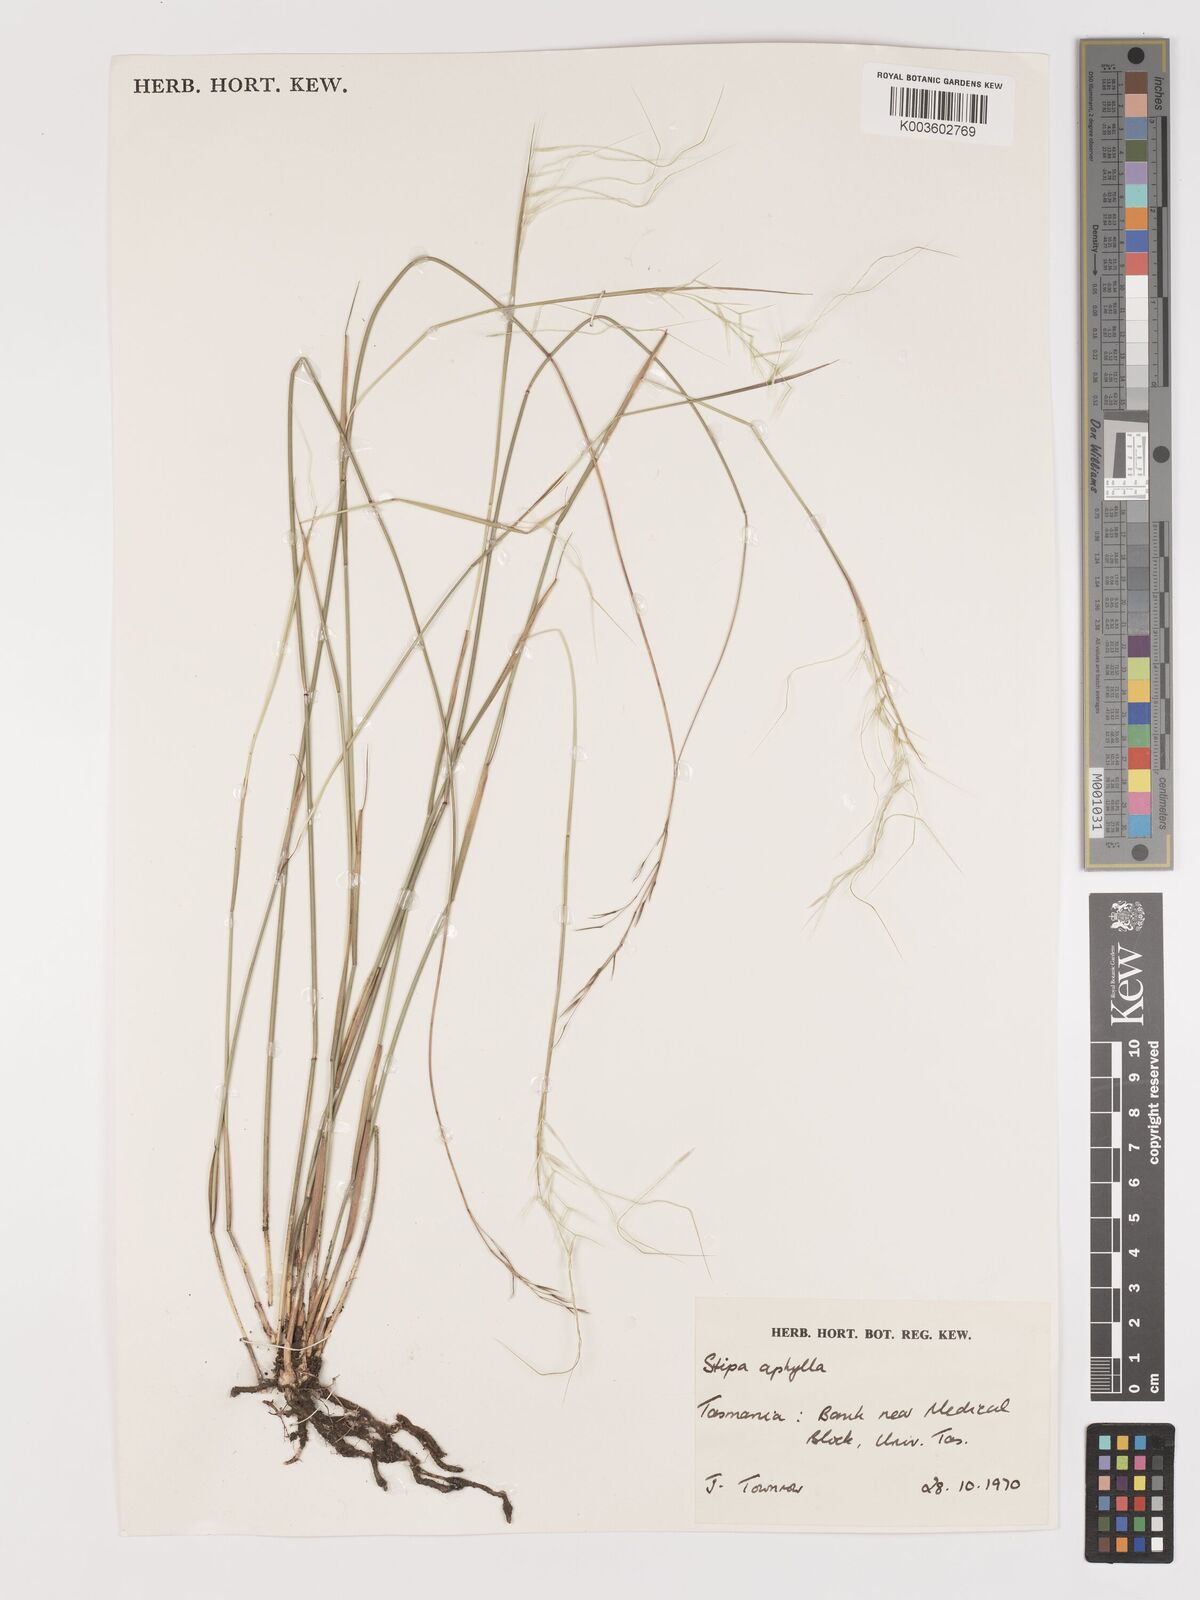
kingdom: Plantae
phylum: Tracheophyta
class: Liliopsida
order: Poales
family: Poaceae
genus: Austrostipa
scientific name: Austrostipa aphylla
